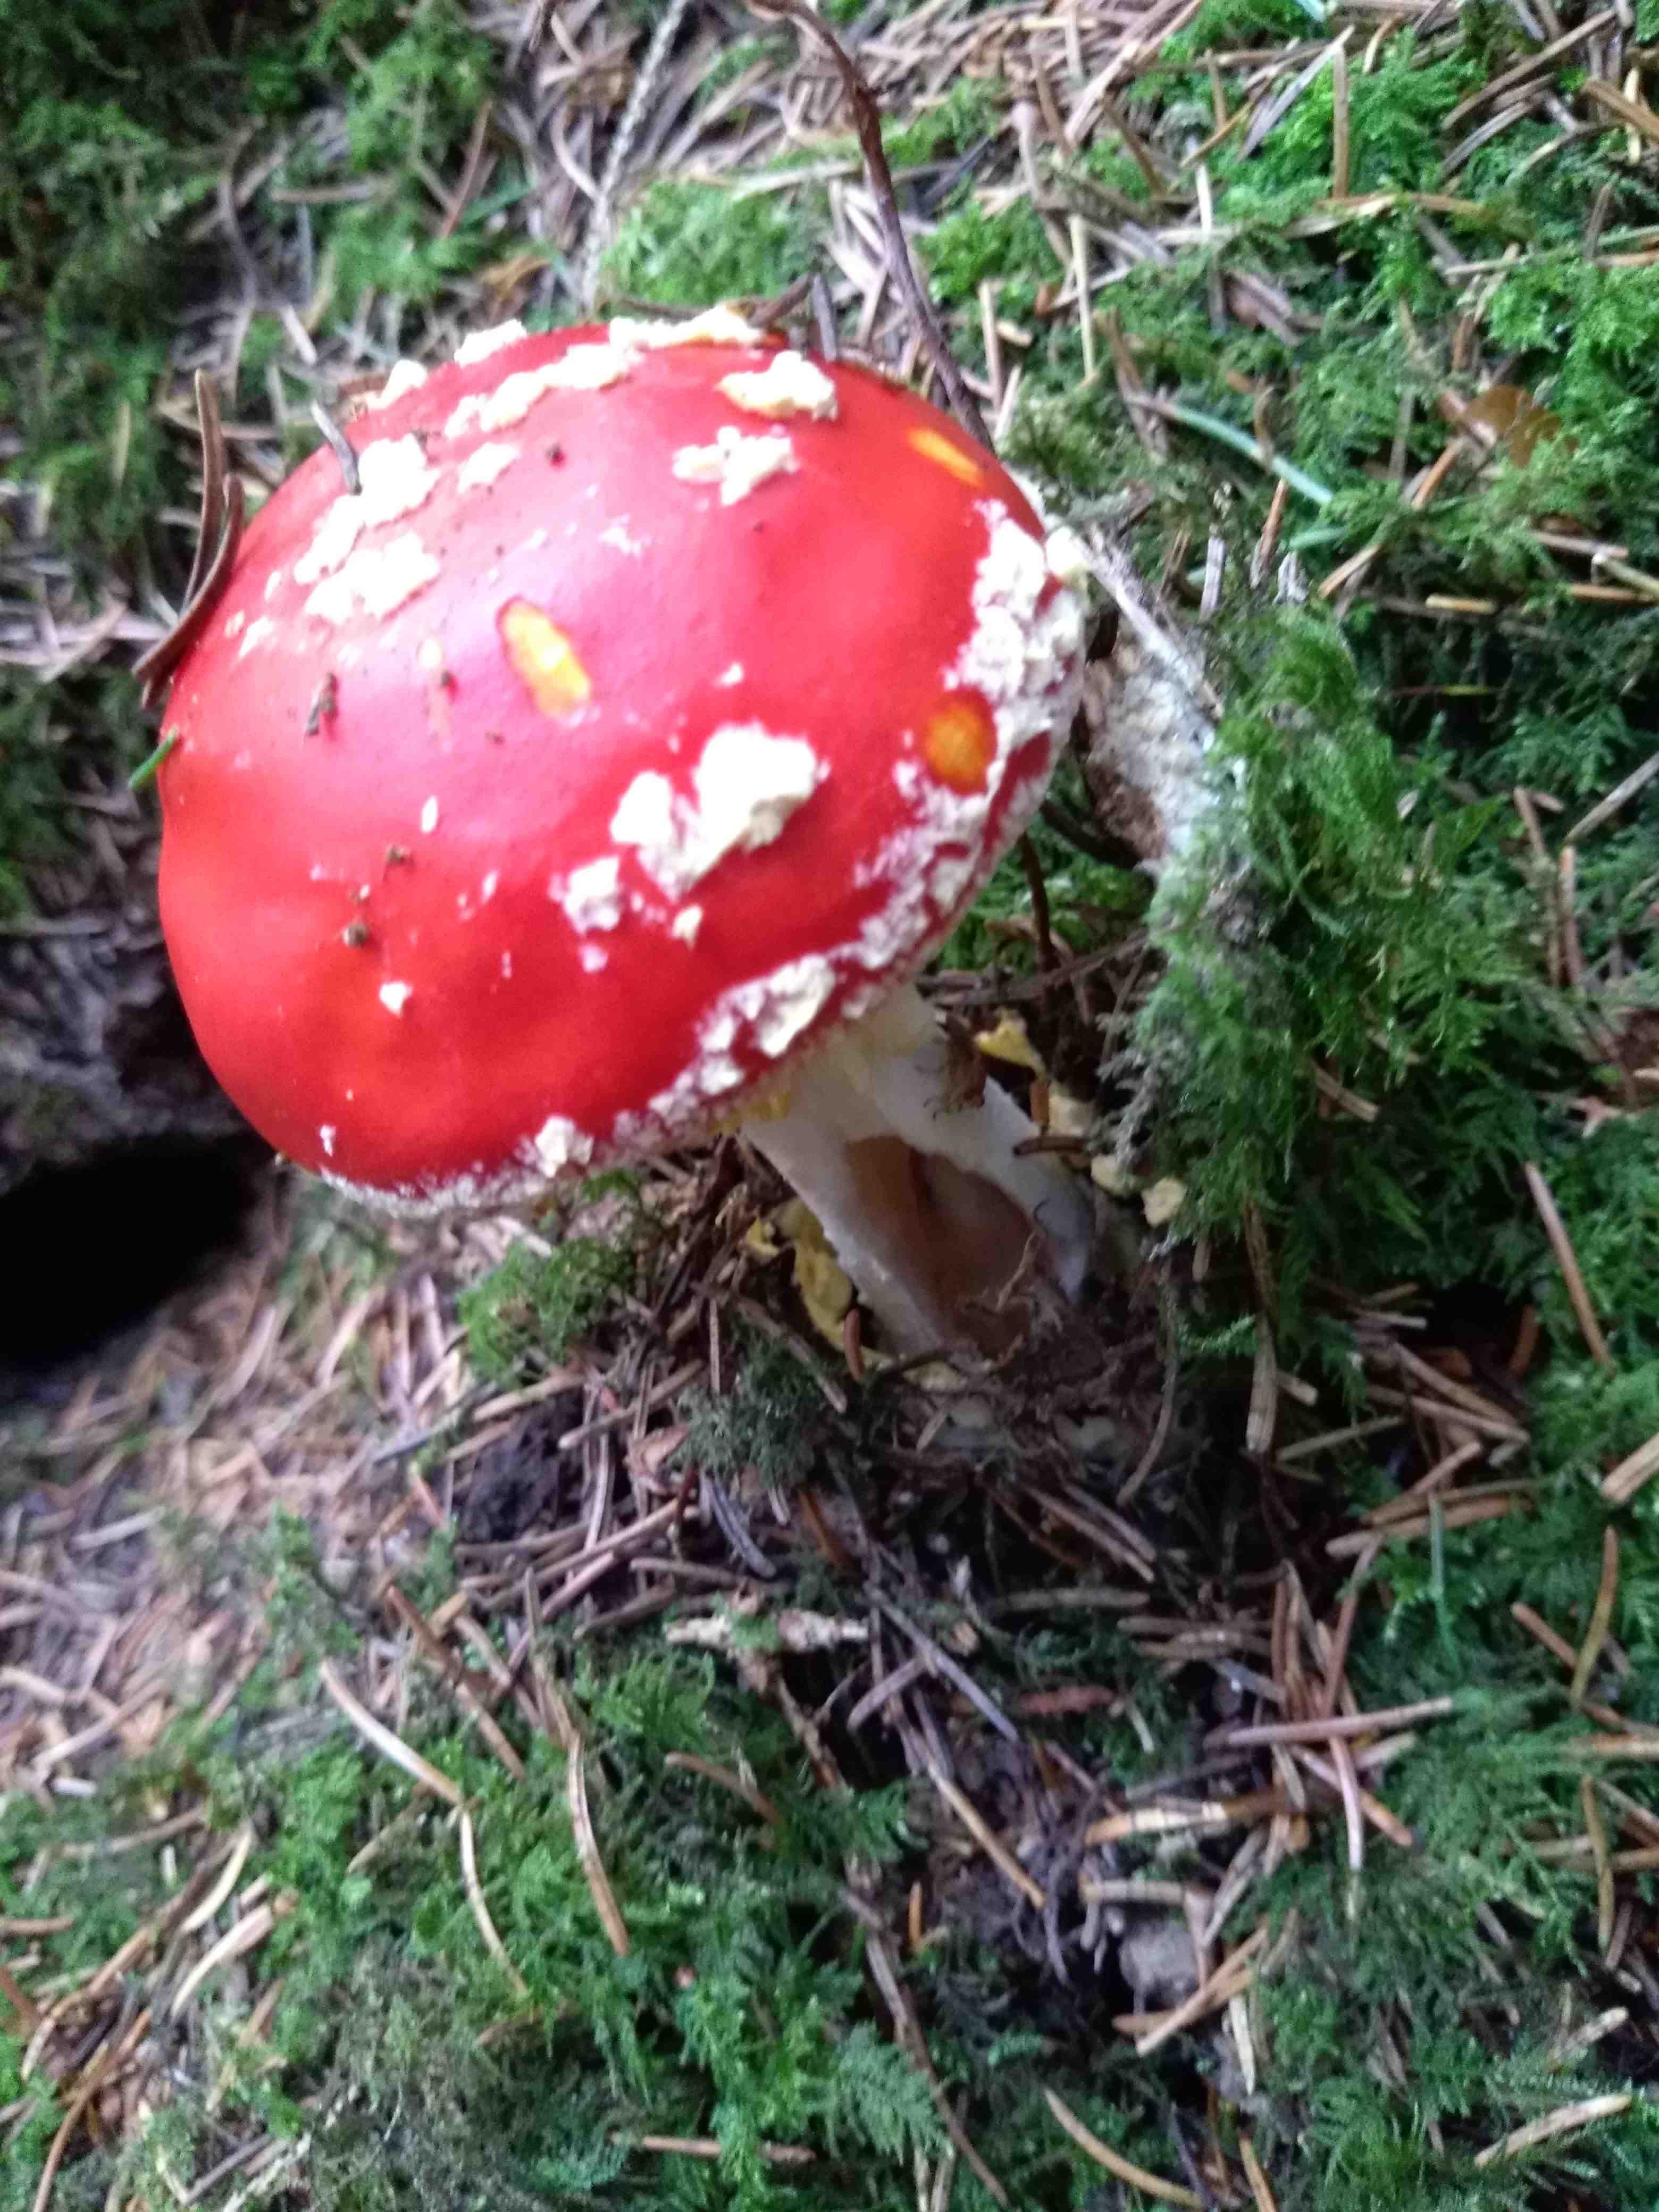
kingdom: Fungi
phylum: Basidiomycota
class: Agaricomycetes
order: Agaricales
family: Amanitaceae
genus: Amanita
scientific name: Amanita muscaria
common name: rød fluesvamp
